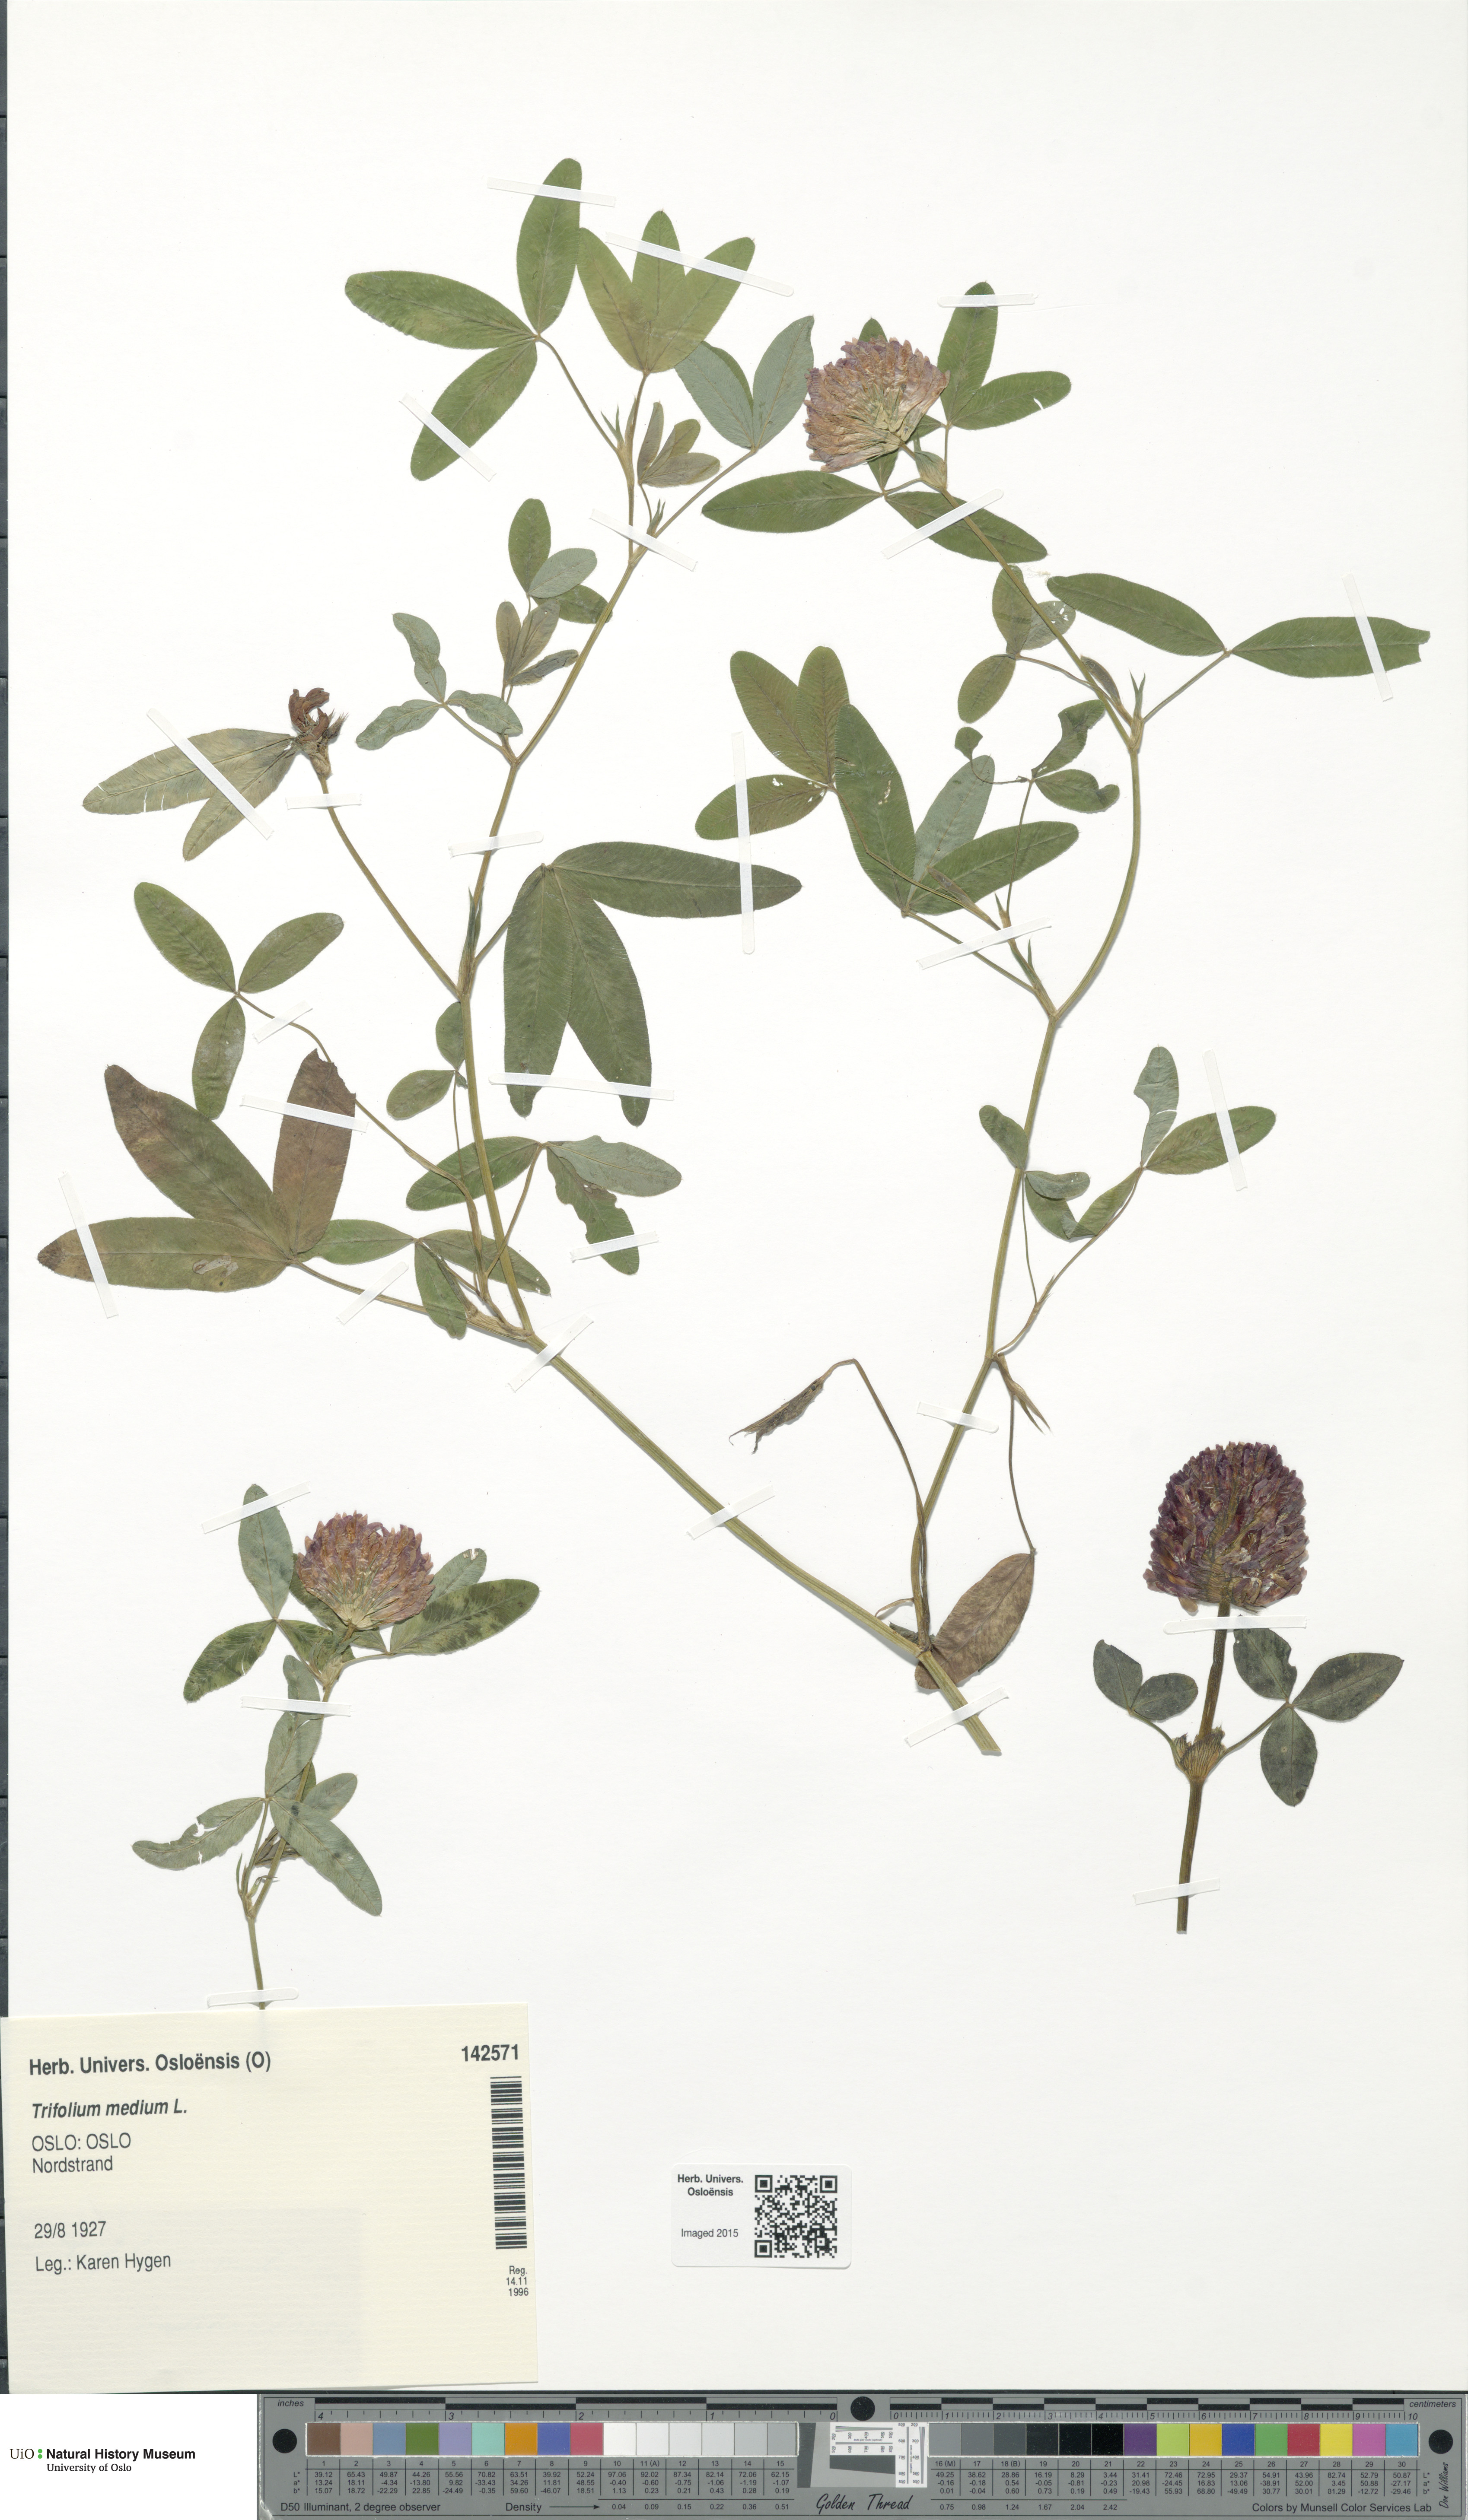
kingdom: Plantae
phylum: Tracheophyta
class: Magnoliopsida
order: Fabales
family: Fabaceae
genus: Trifolium
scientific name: Trifolium medium
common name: Zigzag clover
